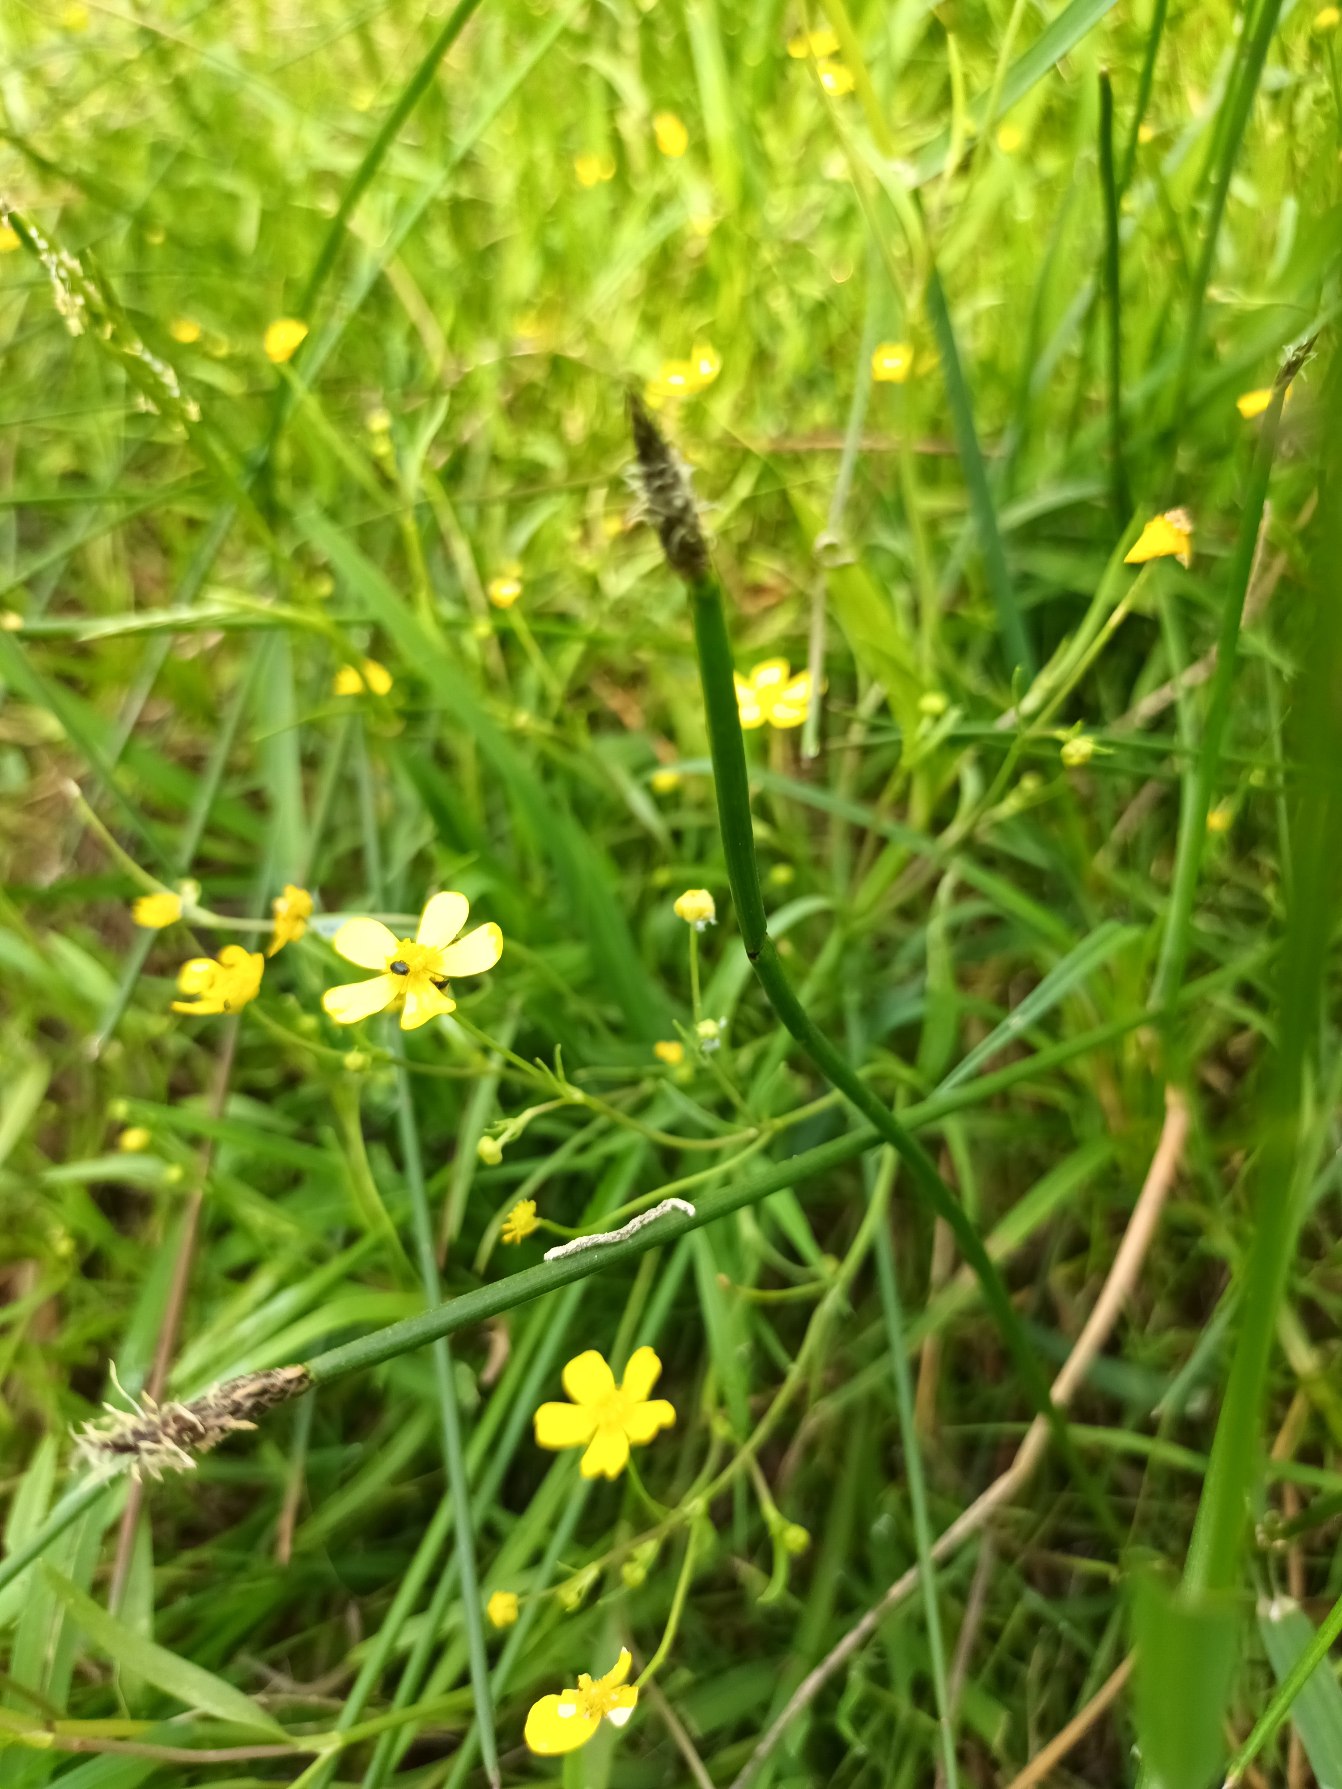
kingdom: Plantae
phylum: Tracheophyta
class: Magnoliopsida
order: Ranunculales
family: Ranunculaceae
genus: Ranunculus
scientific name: Ranunculus flammula
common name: Kær-ranunkel
